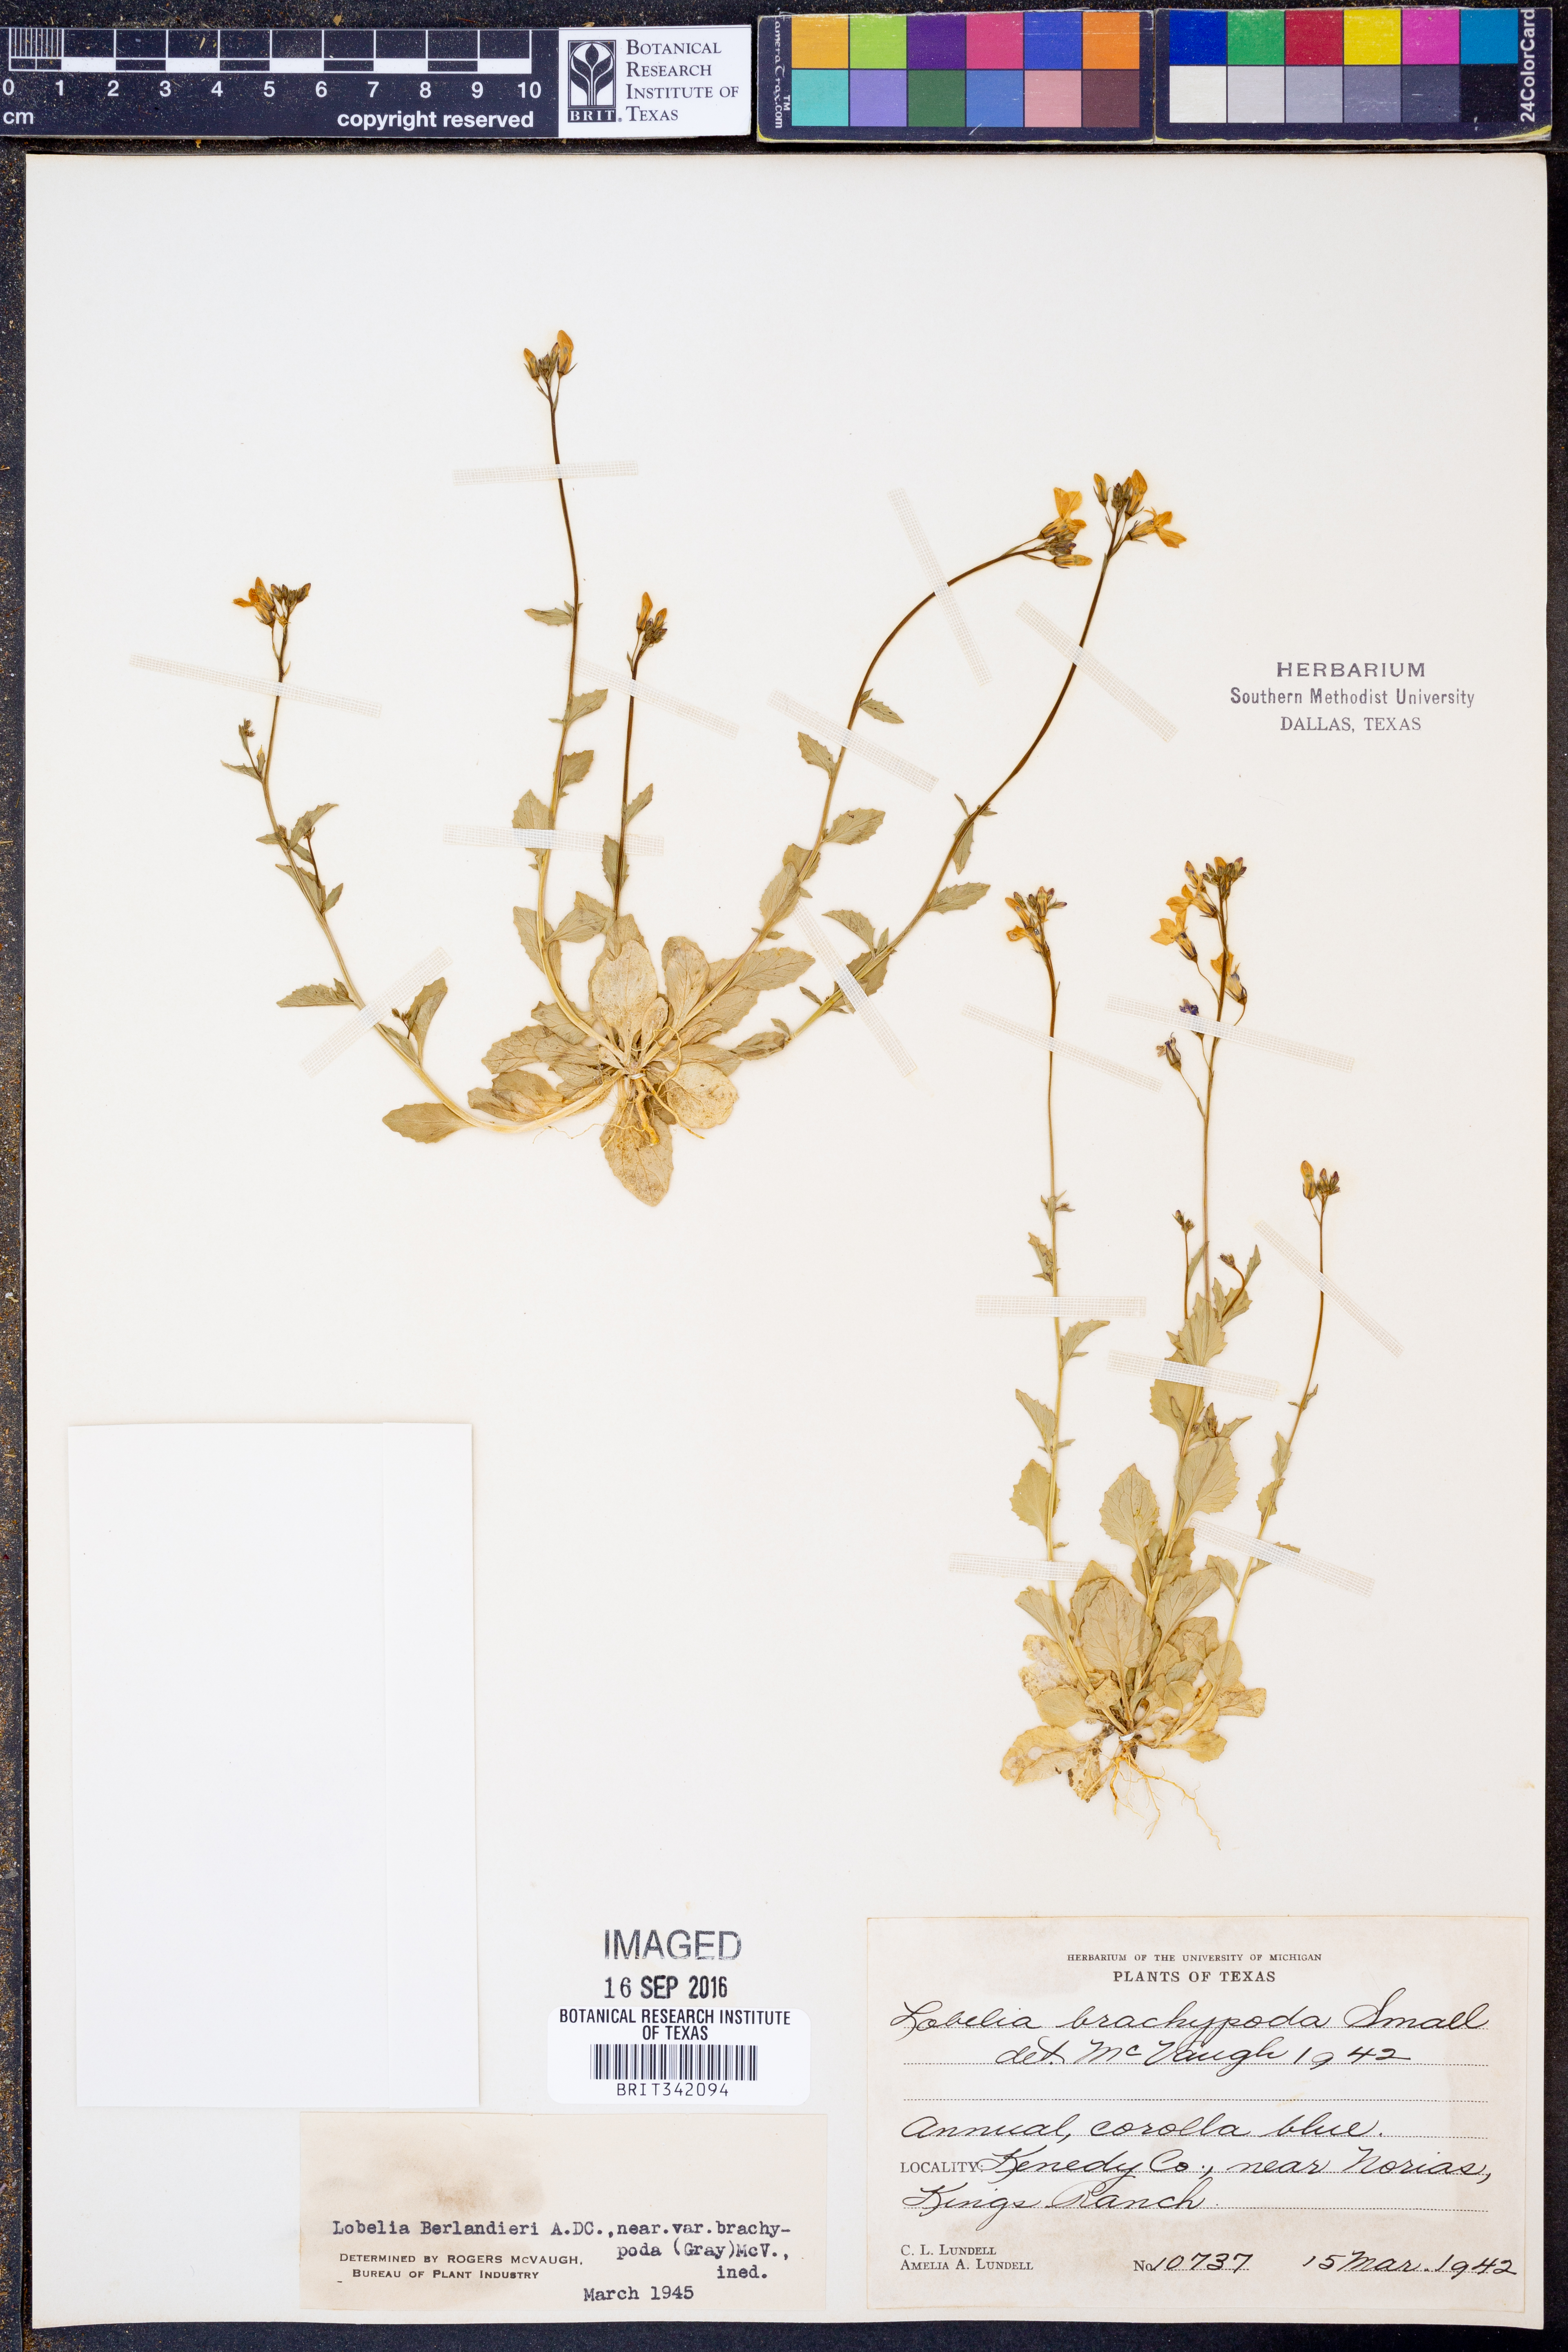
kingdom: Plantae
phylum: Tracheophyta
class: Magnoliopsida
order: Asterales
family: Campanulaceae
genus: Lobelia
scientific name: Lobelia berlandieri
